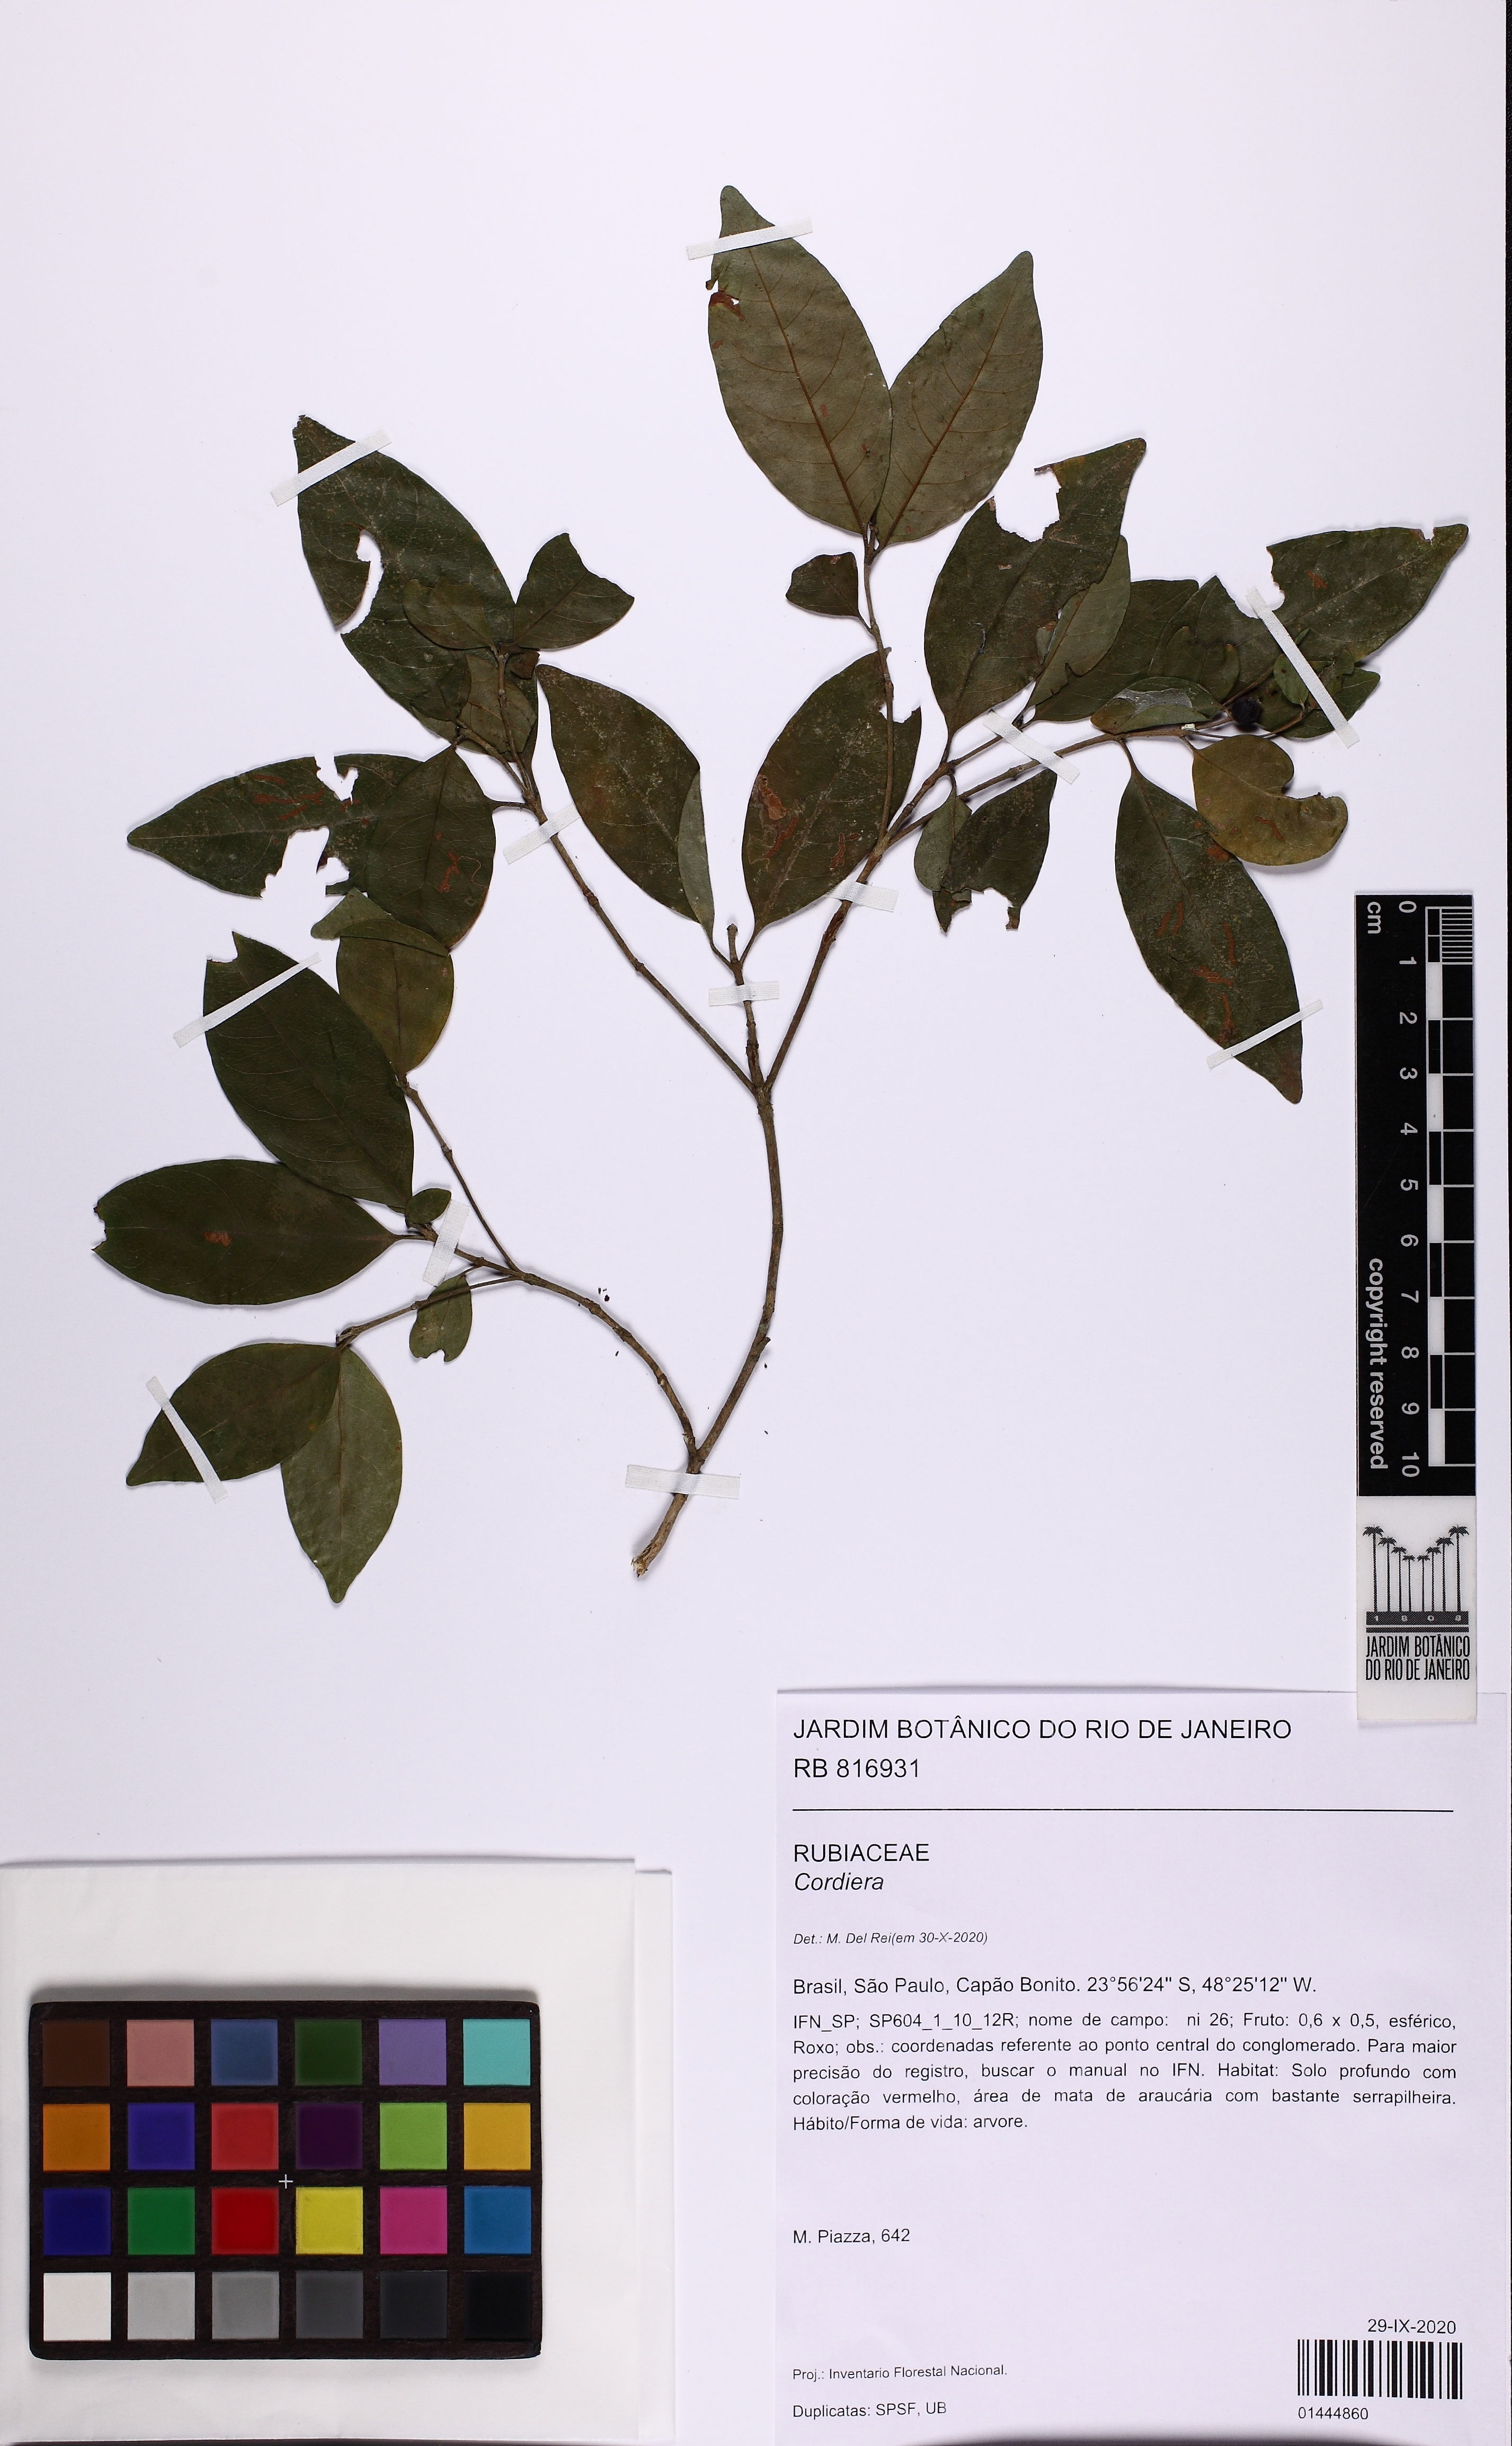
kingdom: Plantae
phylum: Tracheophyta
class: Magnoliopsida
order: Gentianales
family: Rubiaceae
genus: Cordiera
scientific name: Cordiera concolor
